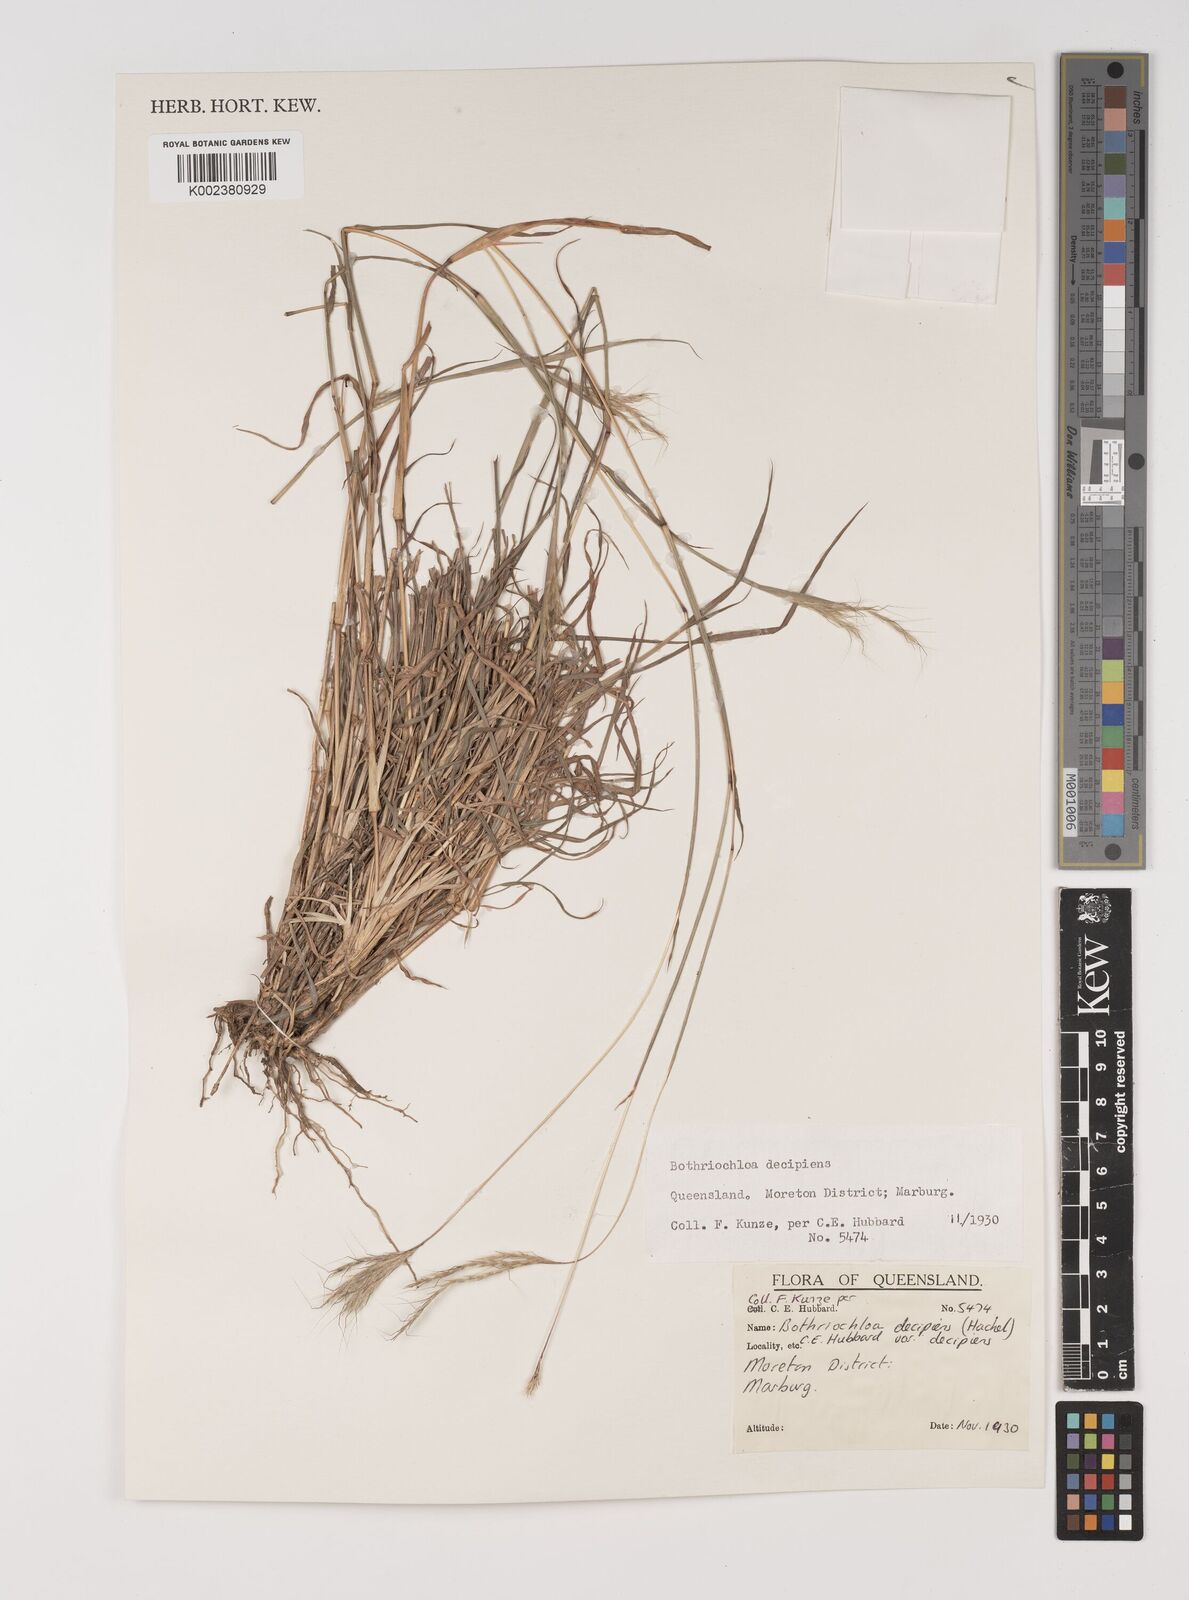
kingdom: Plantae
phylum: Tracheophyta
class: Liliopsida
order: Poales
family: Poaceae
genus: Bothriochloa
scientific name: Bothriochloa decipiens
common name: Pitted-bluegrass
